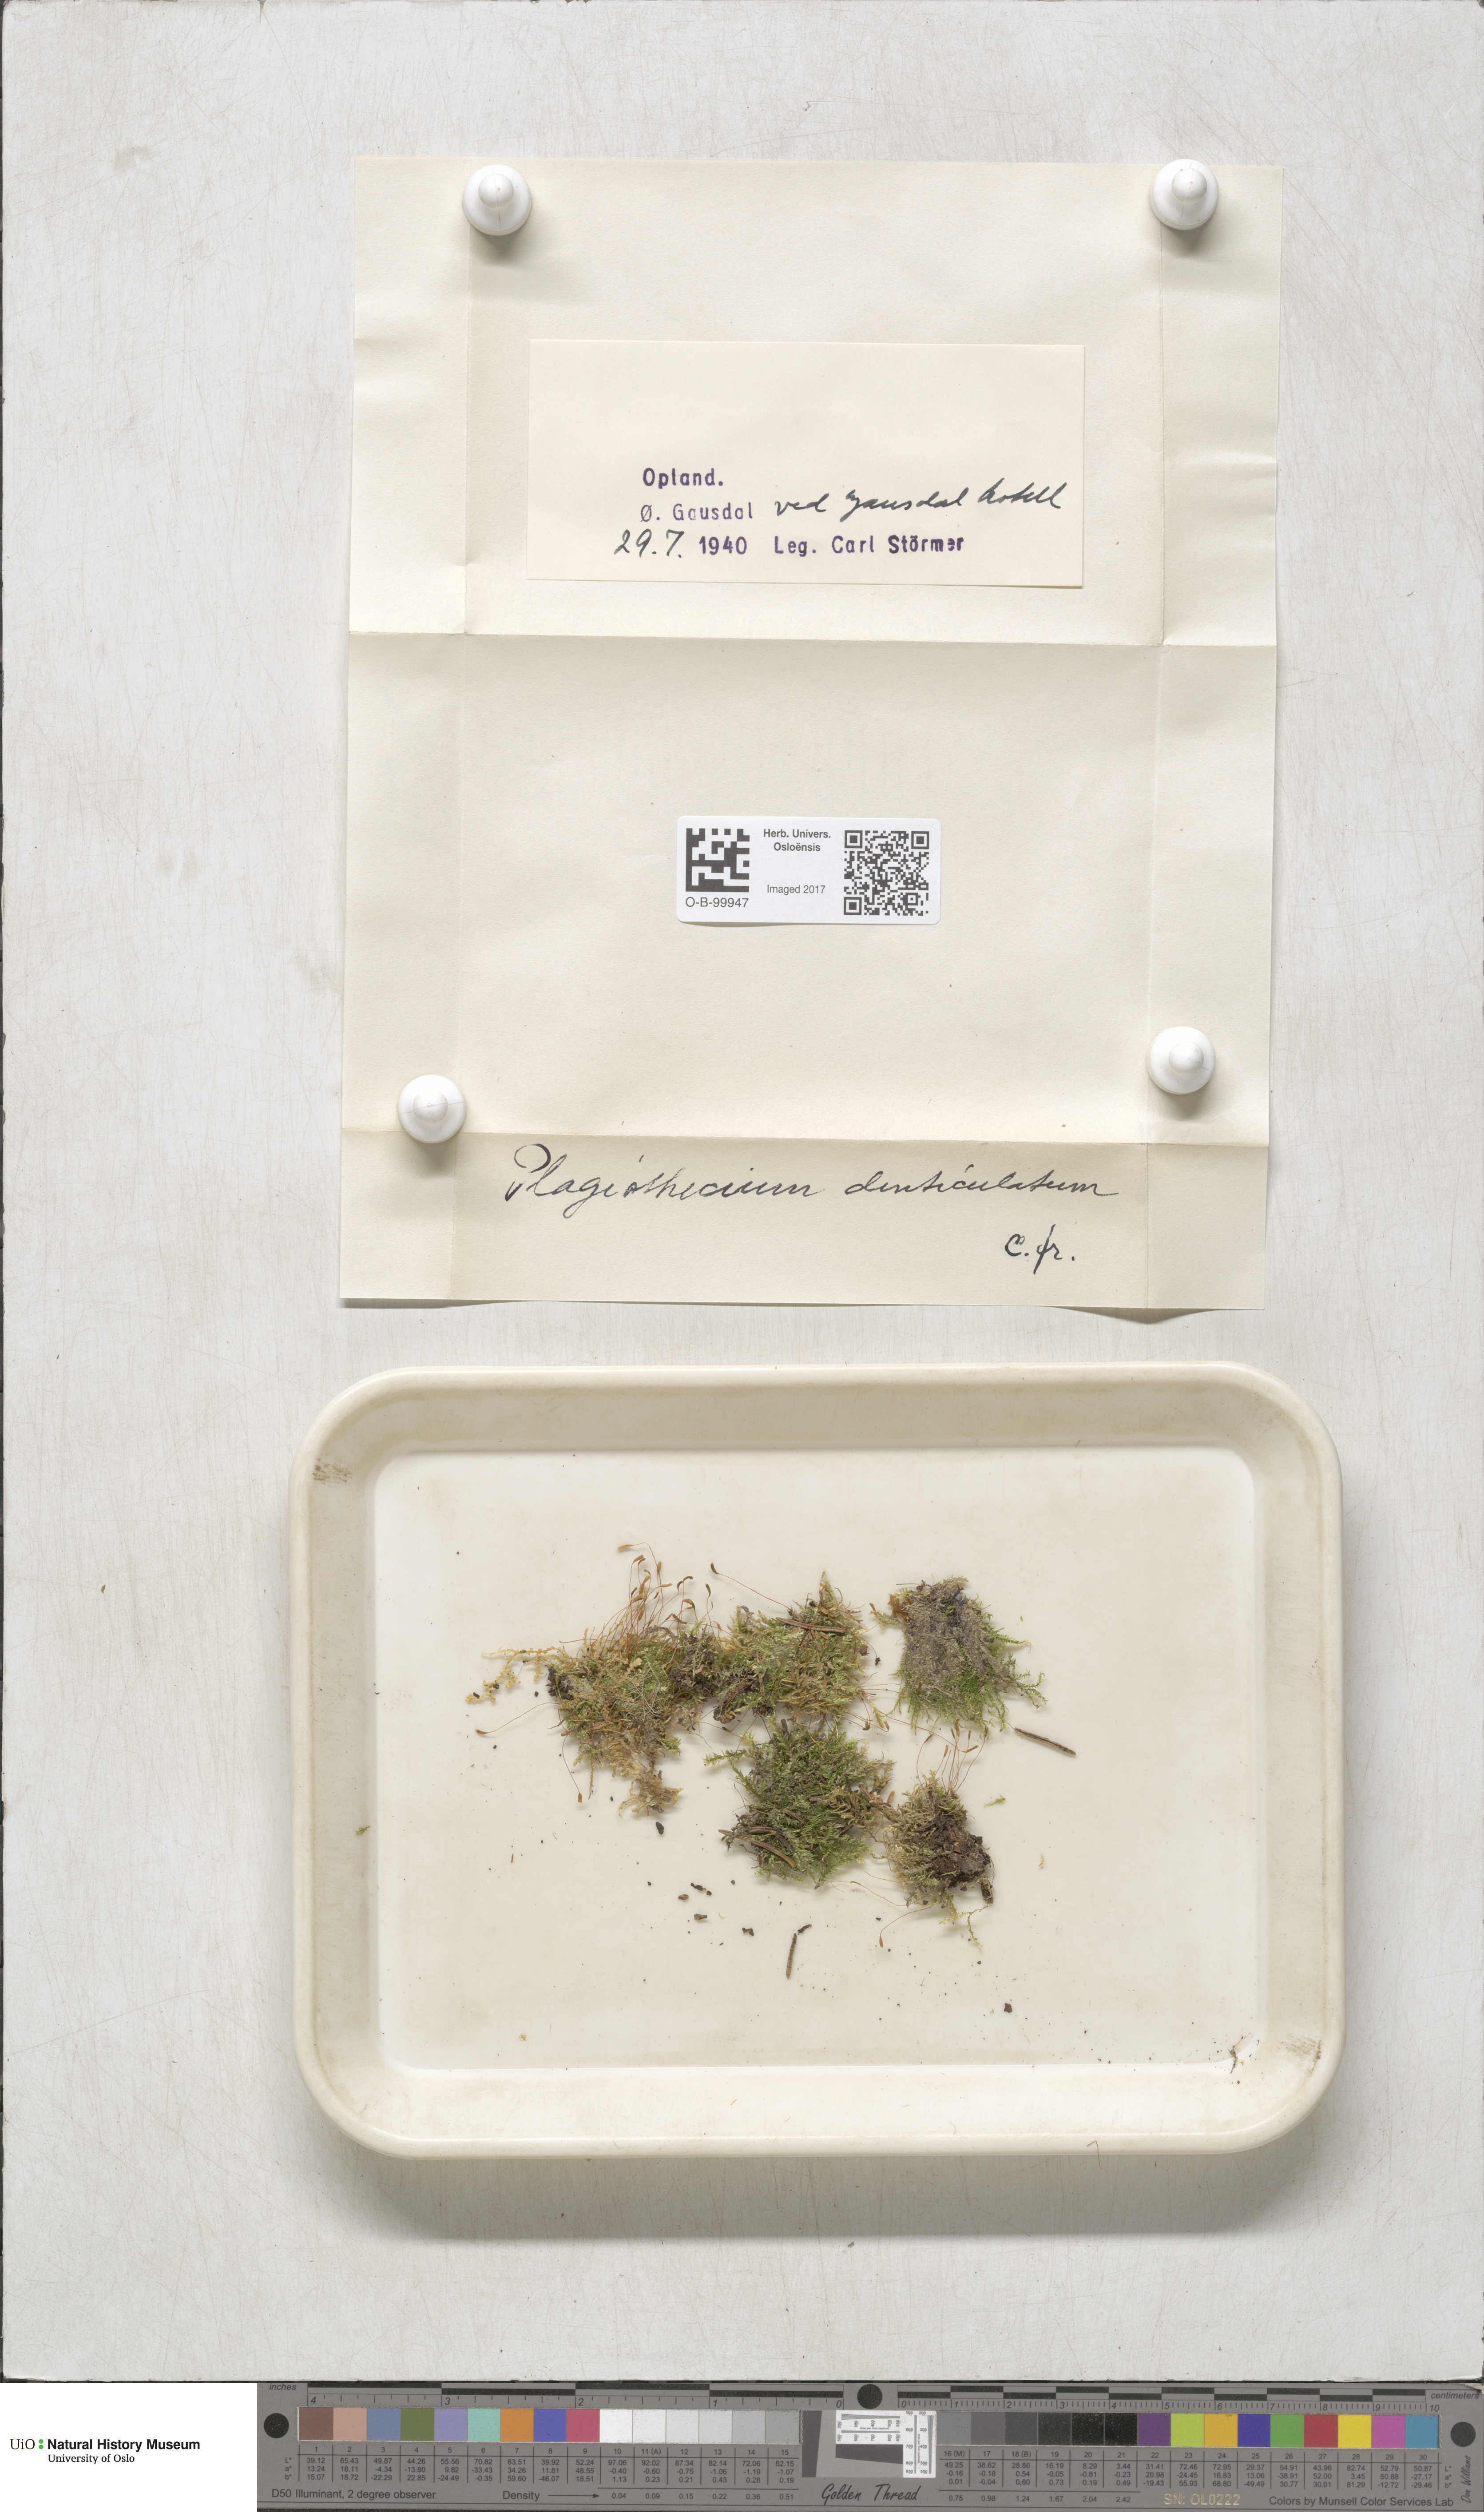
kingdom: Plantae
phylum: Bryophyta
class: Bryopsida
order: Hypnales
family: Plagiotheciaceae
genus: Plagiothecium
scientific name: Plagiothecium denticulatum
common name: Dented silk moss
